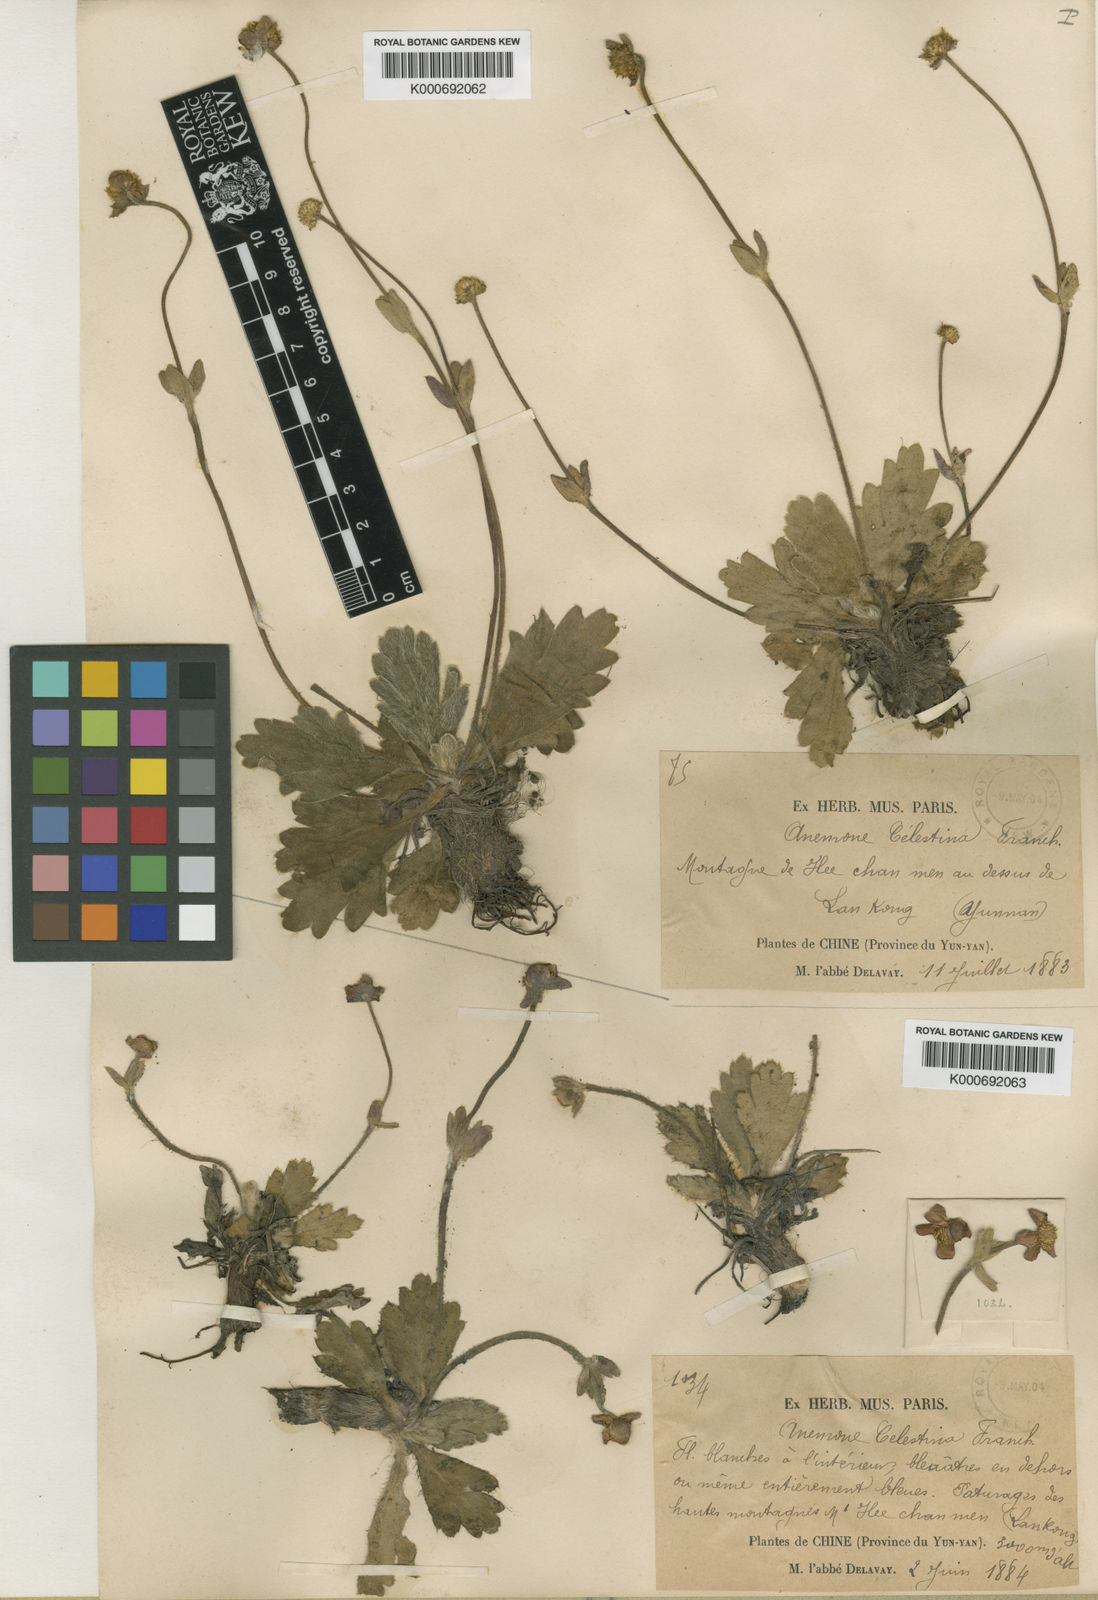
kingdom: Plantae
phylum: Tracheophyta
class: Magnoliopsida
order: Ranunculales
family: Ranunculaceae
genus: Anemonastrum
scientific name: Anemonastrum trullifolium
